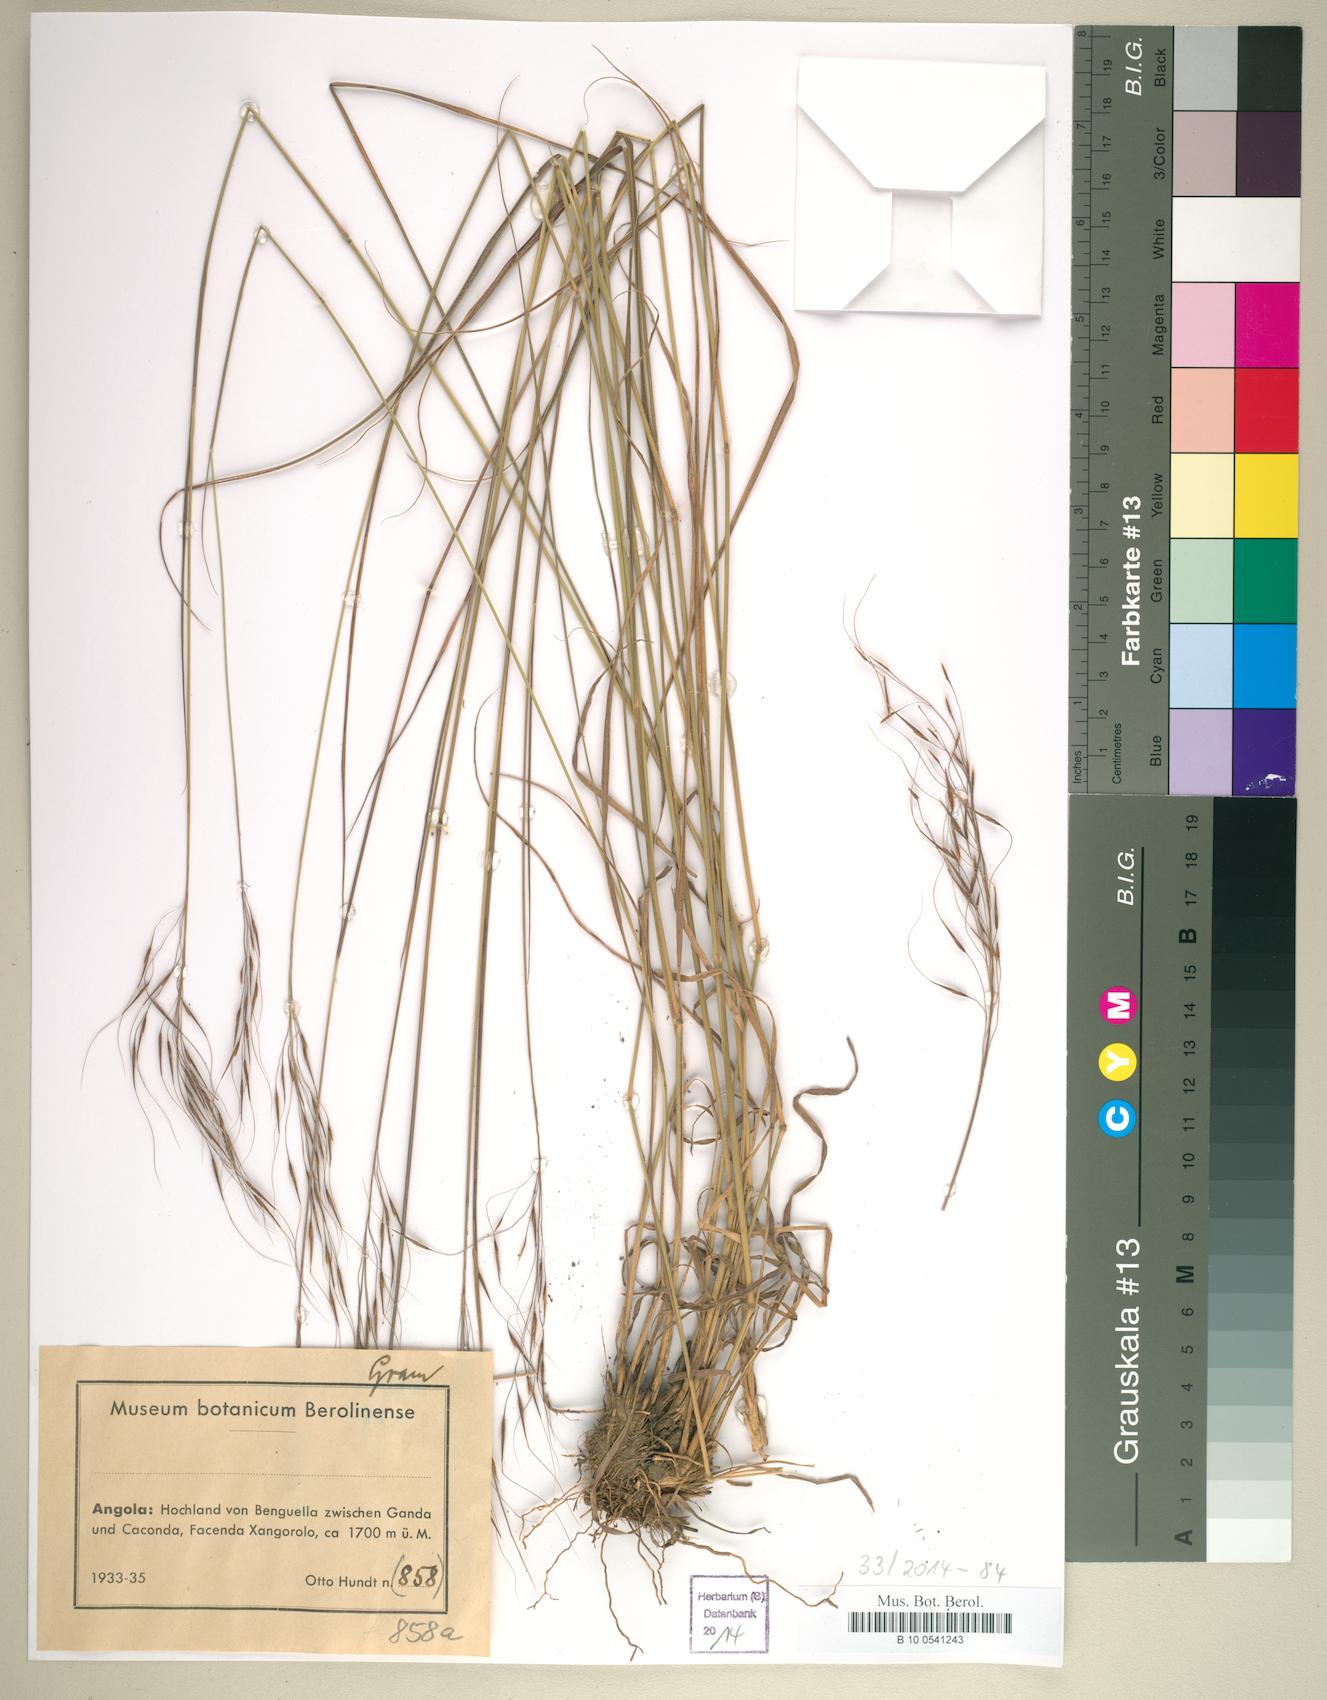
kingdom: Plantae
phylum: Tracheophyta
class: Liliopsida
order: Poales
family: Poaceae
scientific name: Poaceae
